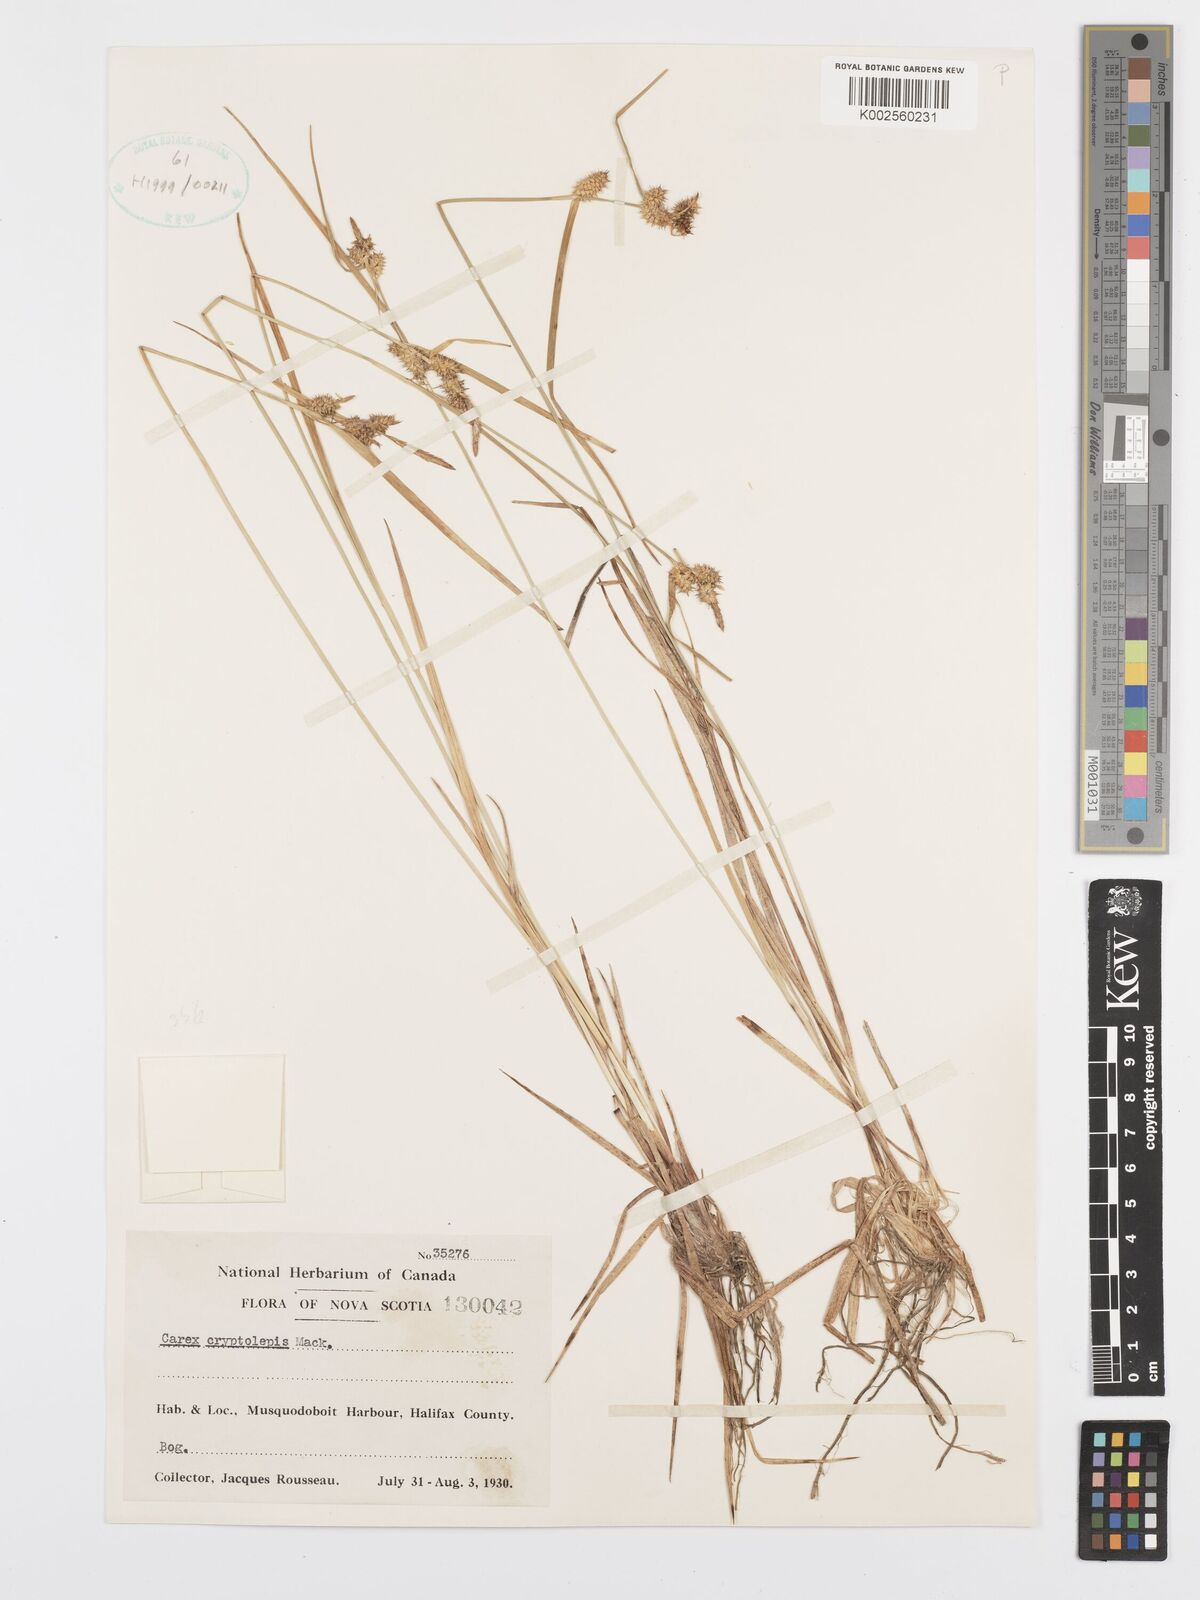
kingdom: Plantae
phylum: Tracheophyta
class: Liliopsida
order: Poales
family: Cyperaceae
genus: Carex
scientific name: Carex cryptolepis
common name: Northeastern sedge
